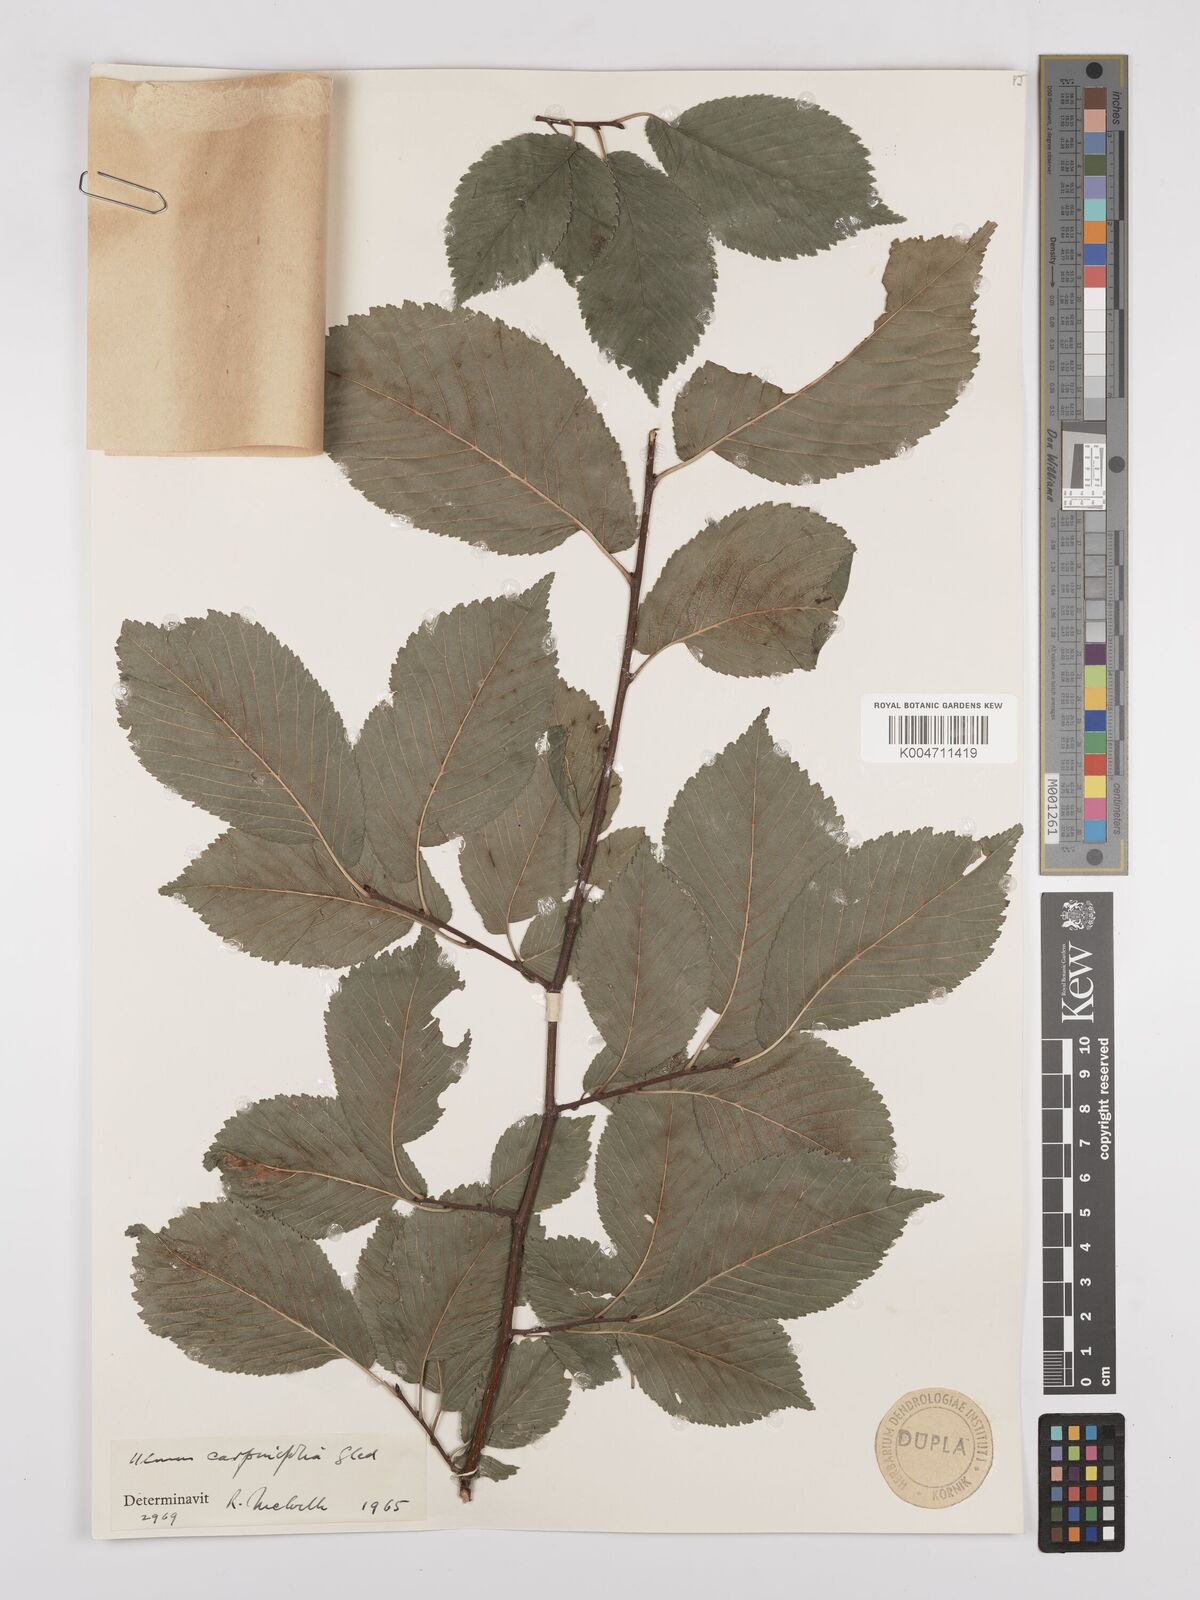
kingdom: Plantae
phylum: Tracheophyta
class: Magnoliopsida
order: Rosales
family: Ulmaceae
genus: Ulmus
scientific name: Ulmus minor
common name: Small-leaved elm
